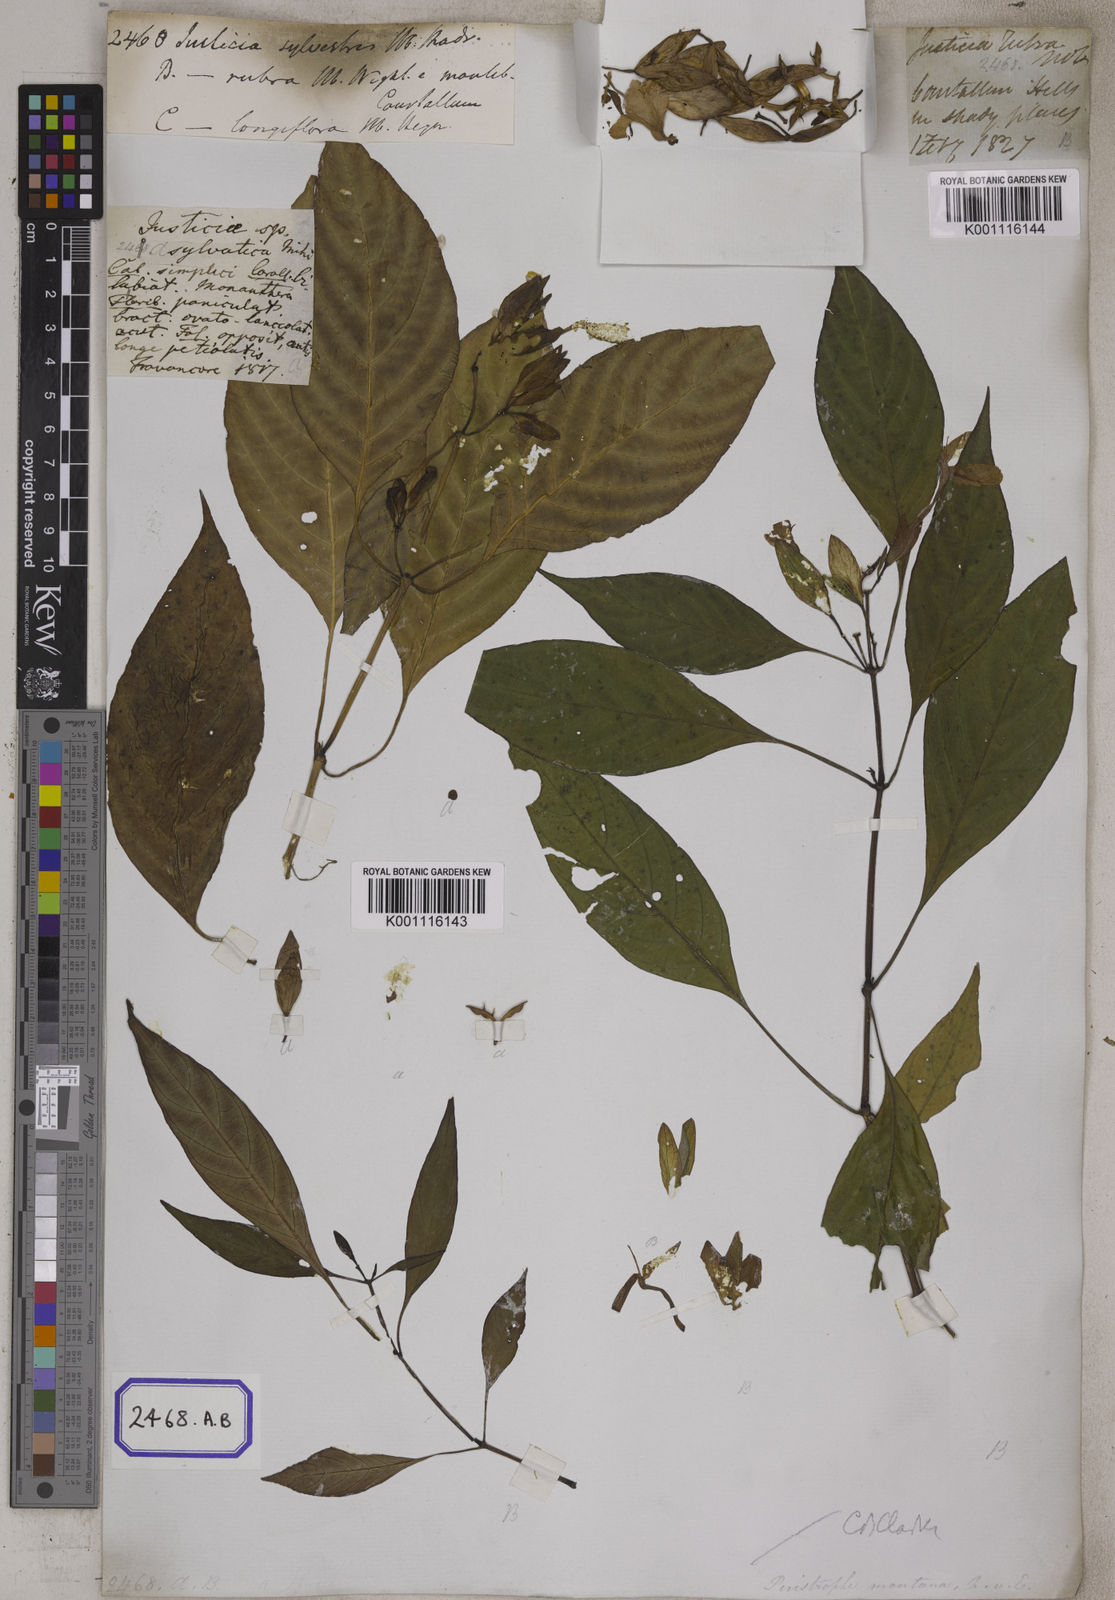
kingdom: Plantae
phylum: Tracheophyta
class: Magnoliopsida
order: Lamiales
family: Acanthaceae
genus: Dicliptera
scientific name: Dicliptera baphica
